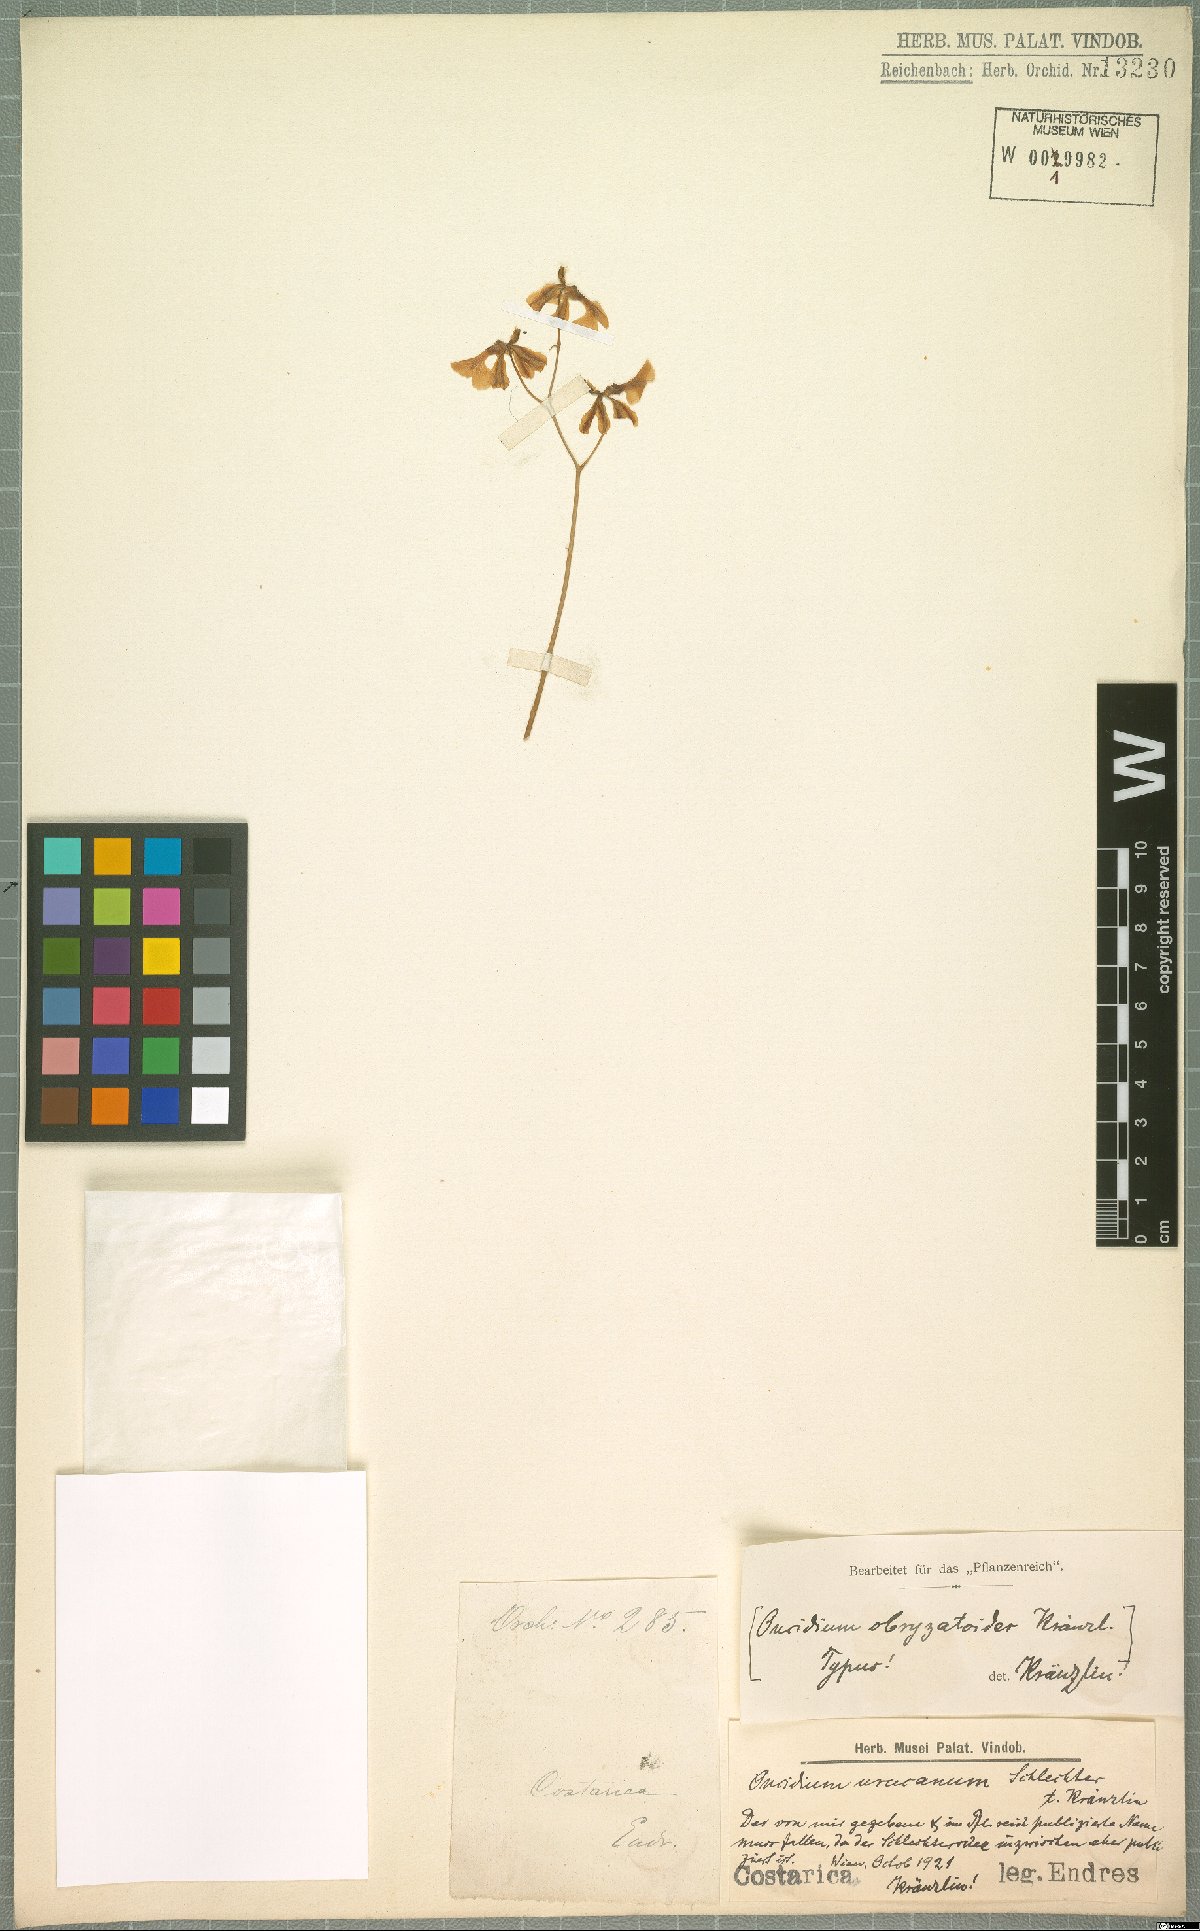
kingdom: Plantae
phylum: Tracheophyta
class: Liliopsida
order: Asparagales
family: Orchidaceae
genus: Oncidium
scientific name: Oncidium obryzatoides
